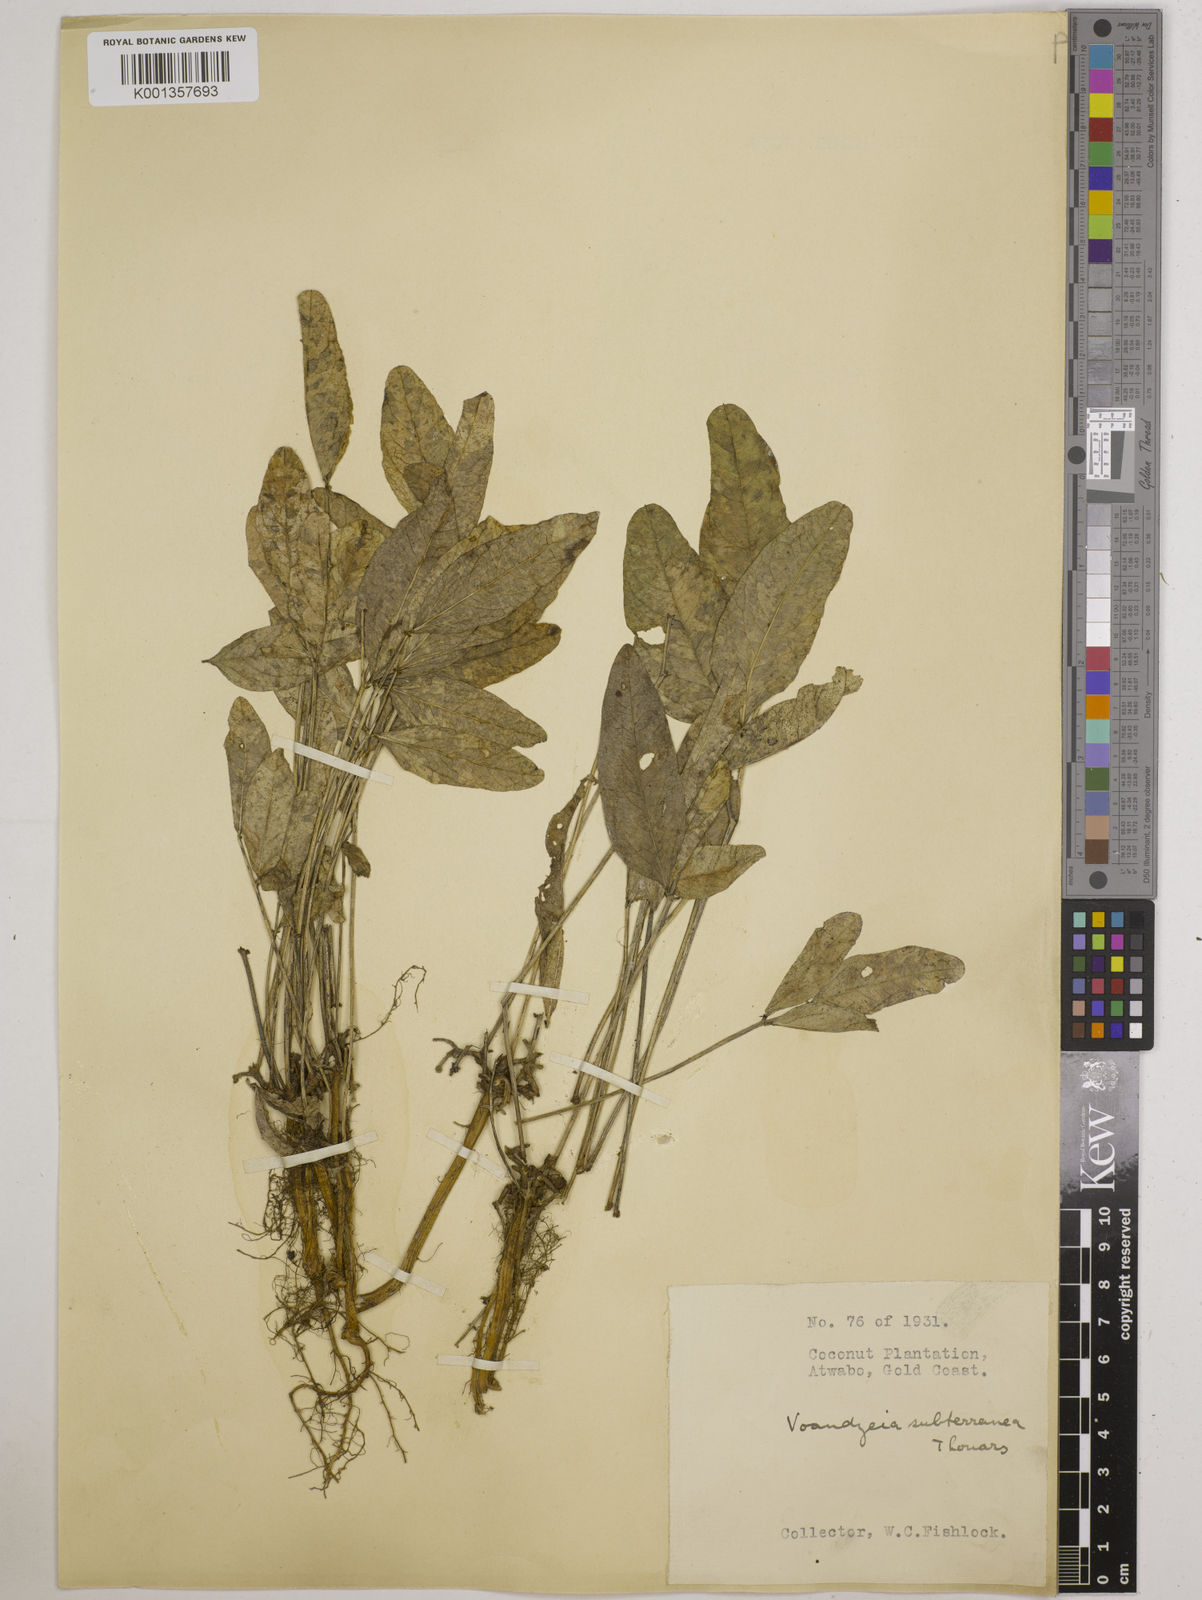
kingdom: Plantae
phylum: Tracheophyta
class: Magnoliopsida
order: Fabales
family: Fabaceae
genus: Vigna
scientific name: Vigna subterranea
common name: Bambara groundnut
